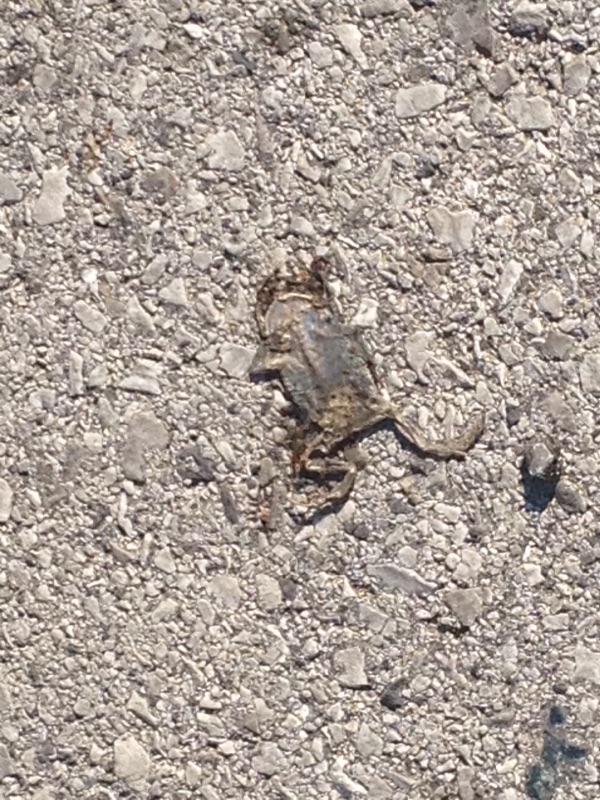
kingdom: Animalia
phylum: Chordata
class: Amphibia
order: Anura
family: Bufonidae
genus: Bufotes
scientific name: Bufotes viridis
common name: European green toad
